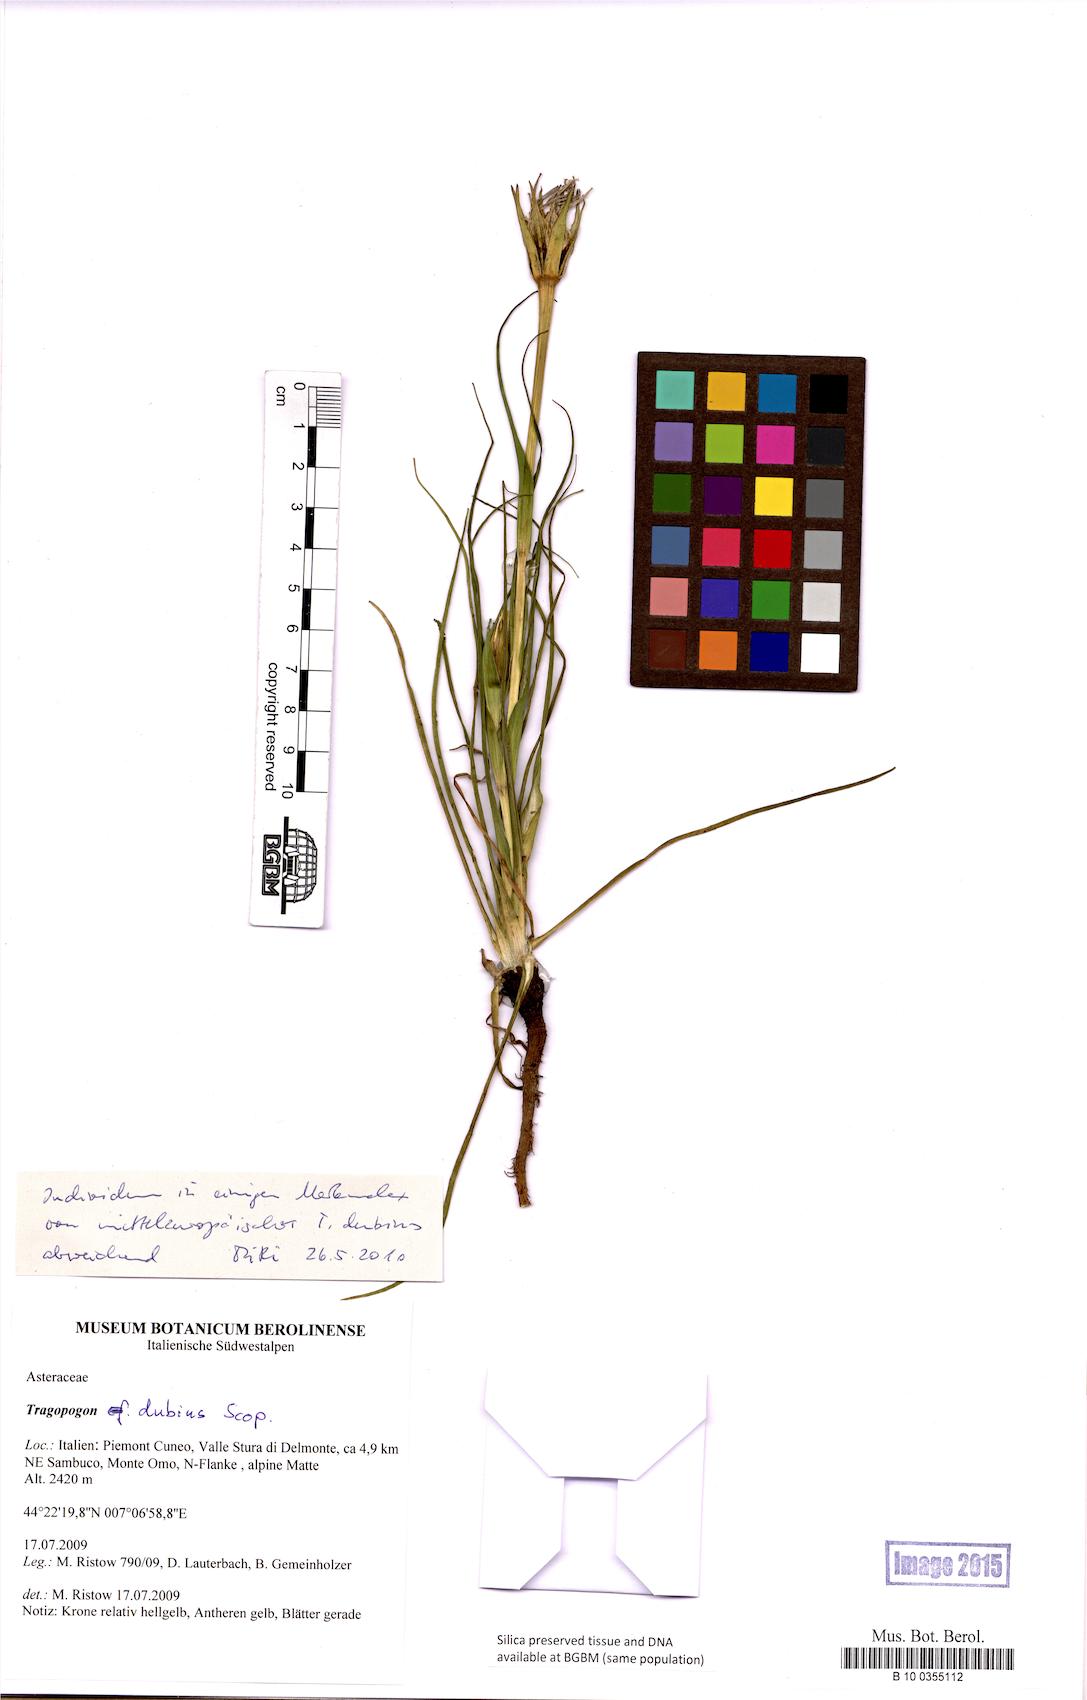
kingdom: Plantae
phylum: Tracheophyta
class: Magnoliopsida
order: Asterales
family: Asteraceae
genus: Tragopogon
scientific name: Tragopogon dubius
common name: Yellow salsify
